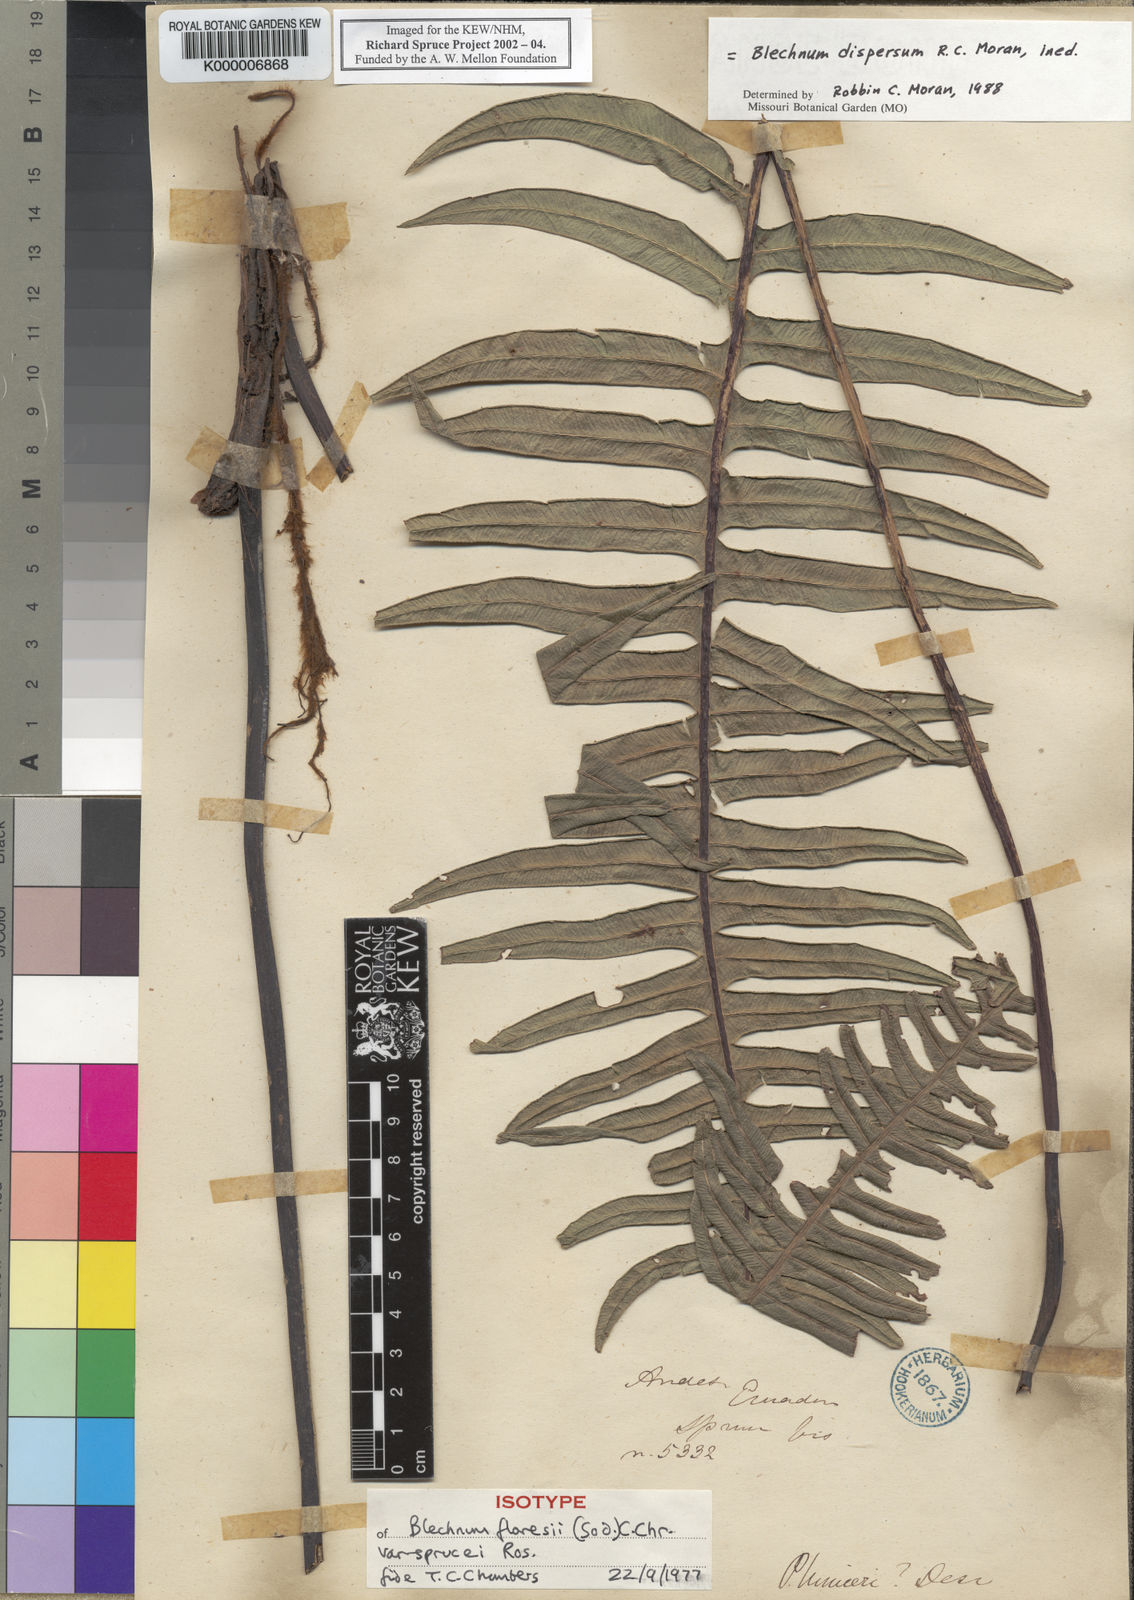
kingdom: Plantae
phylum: Tracheophyta
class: Polypodiopsida
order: Polypodiales
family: Blechnaceae
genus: Blechnum
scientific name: Blechnum
